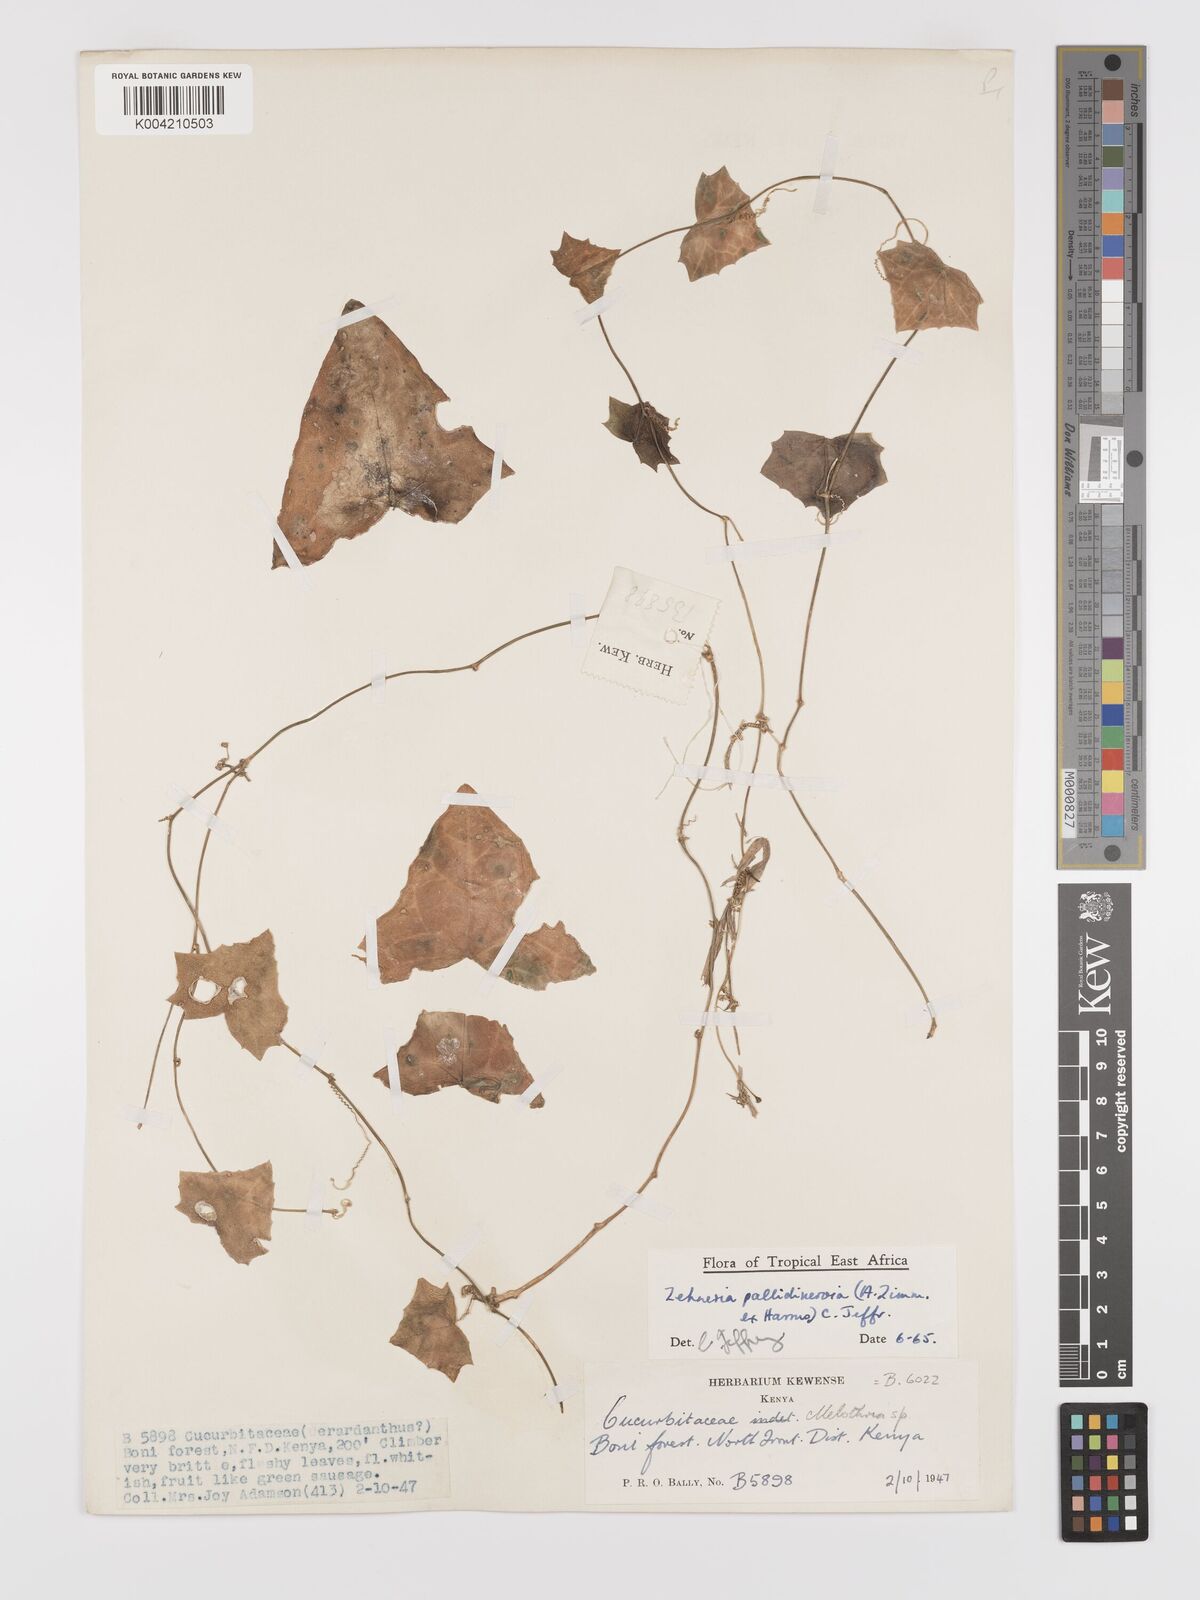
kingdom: Plantae
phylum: Tracheophyta
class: Magnoliopsida
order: Cucurbitales
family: Cucurbitaceae
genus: Zehneria
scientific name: Zehneria pallidinervia
